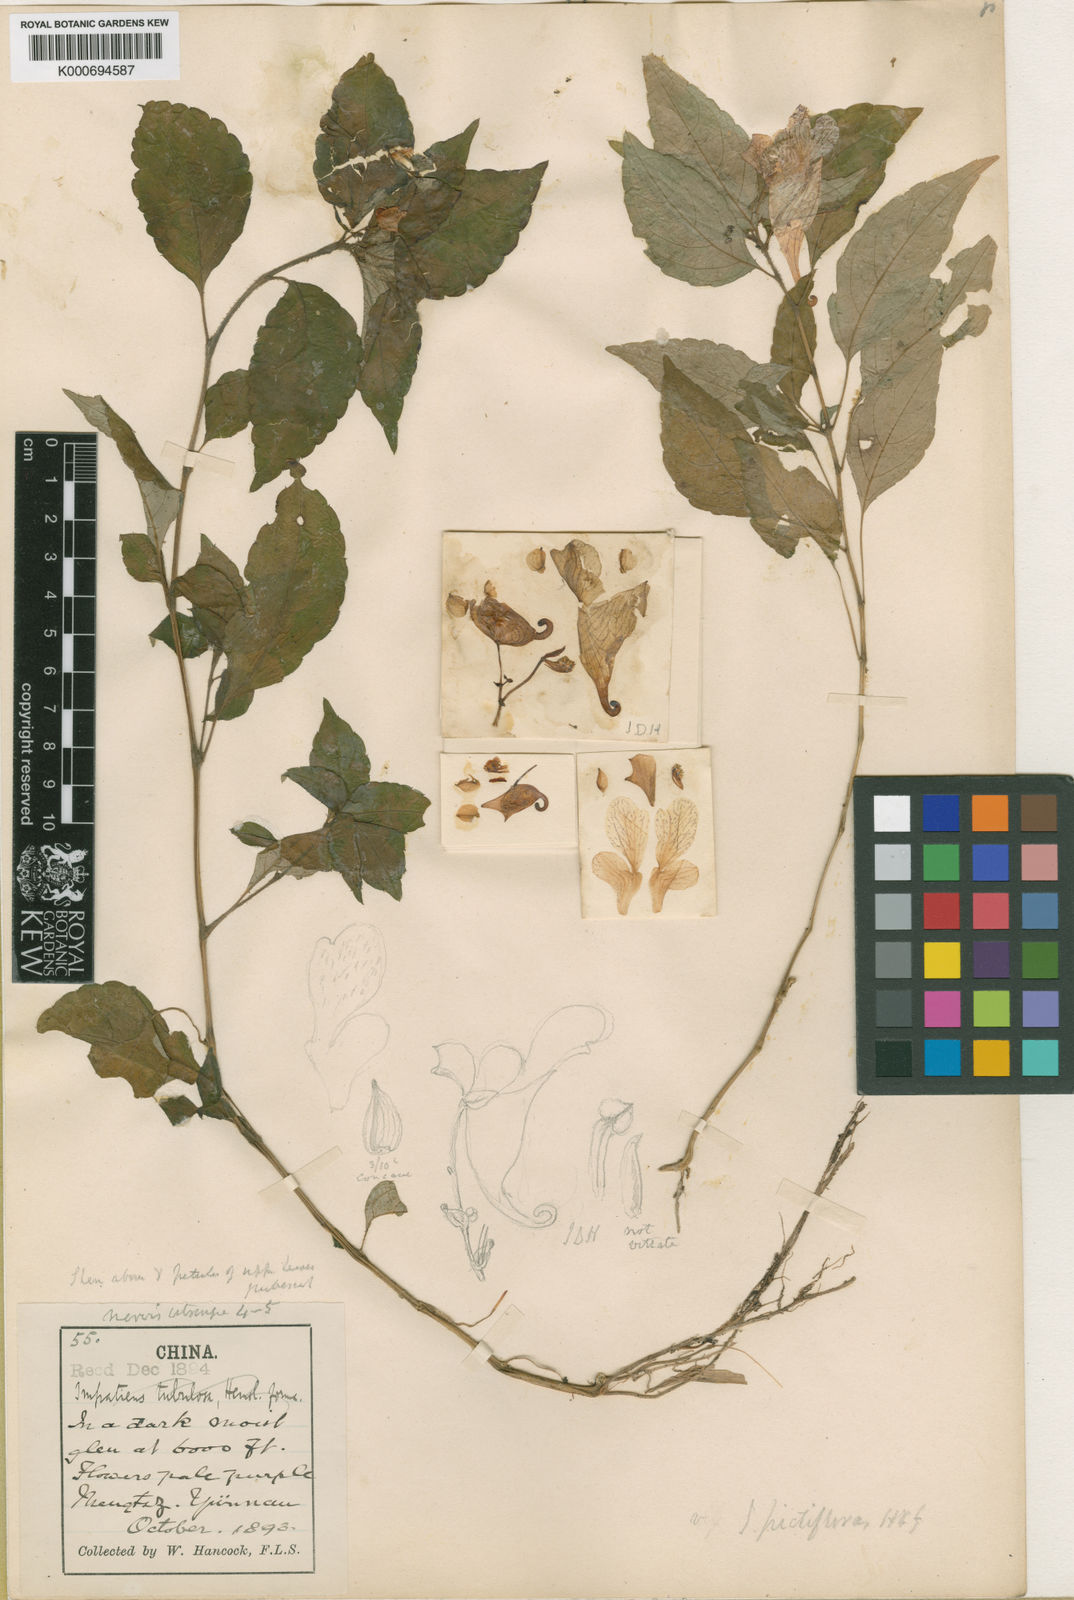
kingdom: Plantae
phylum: Tracheophyta
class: Magnoliopsida
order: Ericales
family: Balsaminaceae
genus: Impatiens
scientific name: Impatiens procumbens
